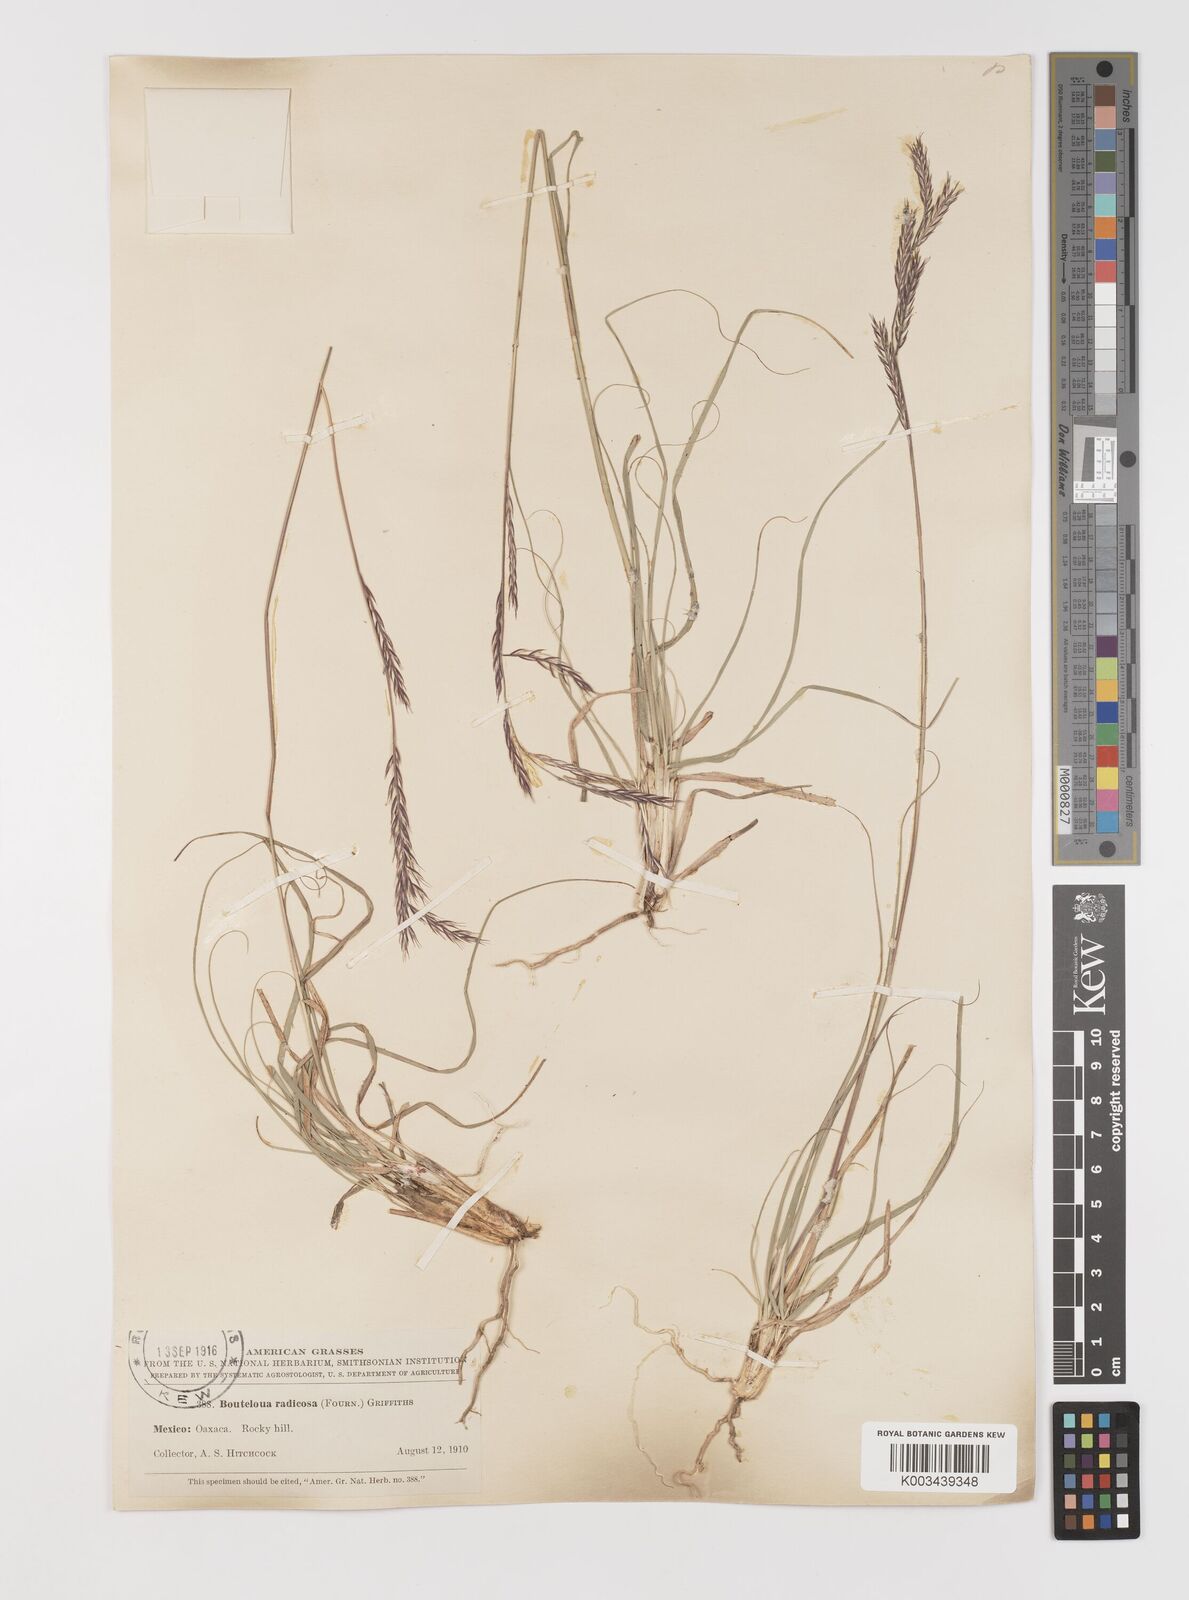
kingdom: Plantae
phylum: Tracheophyta
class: Liliopsida
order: Poales
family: Poaceae
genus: Bouteloua
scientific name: Bouteloua radicosa
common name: Purple grama
